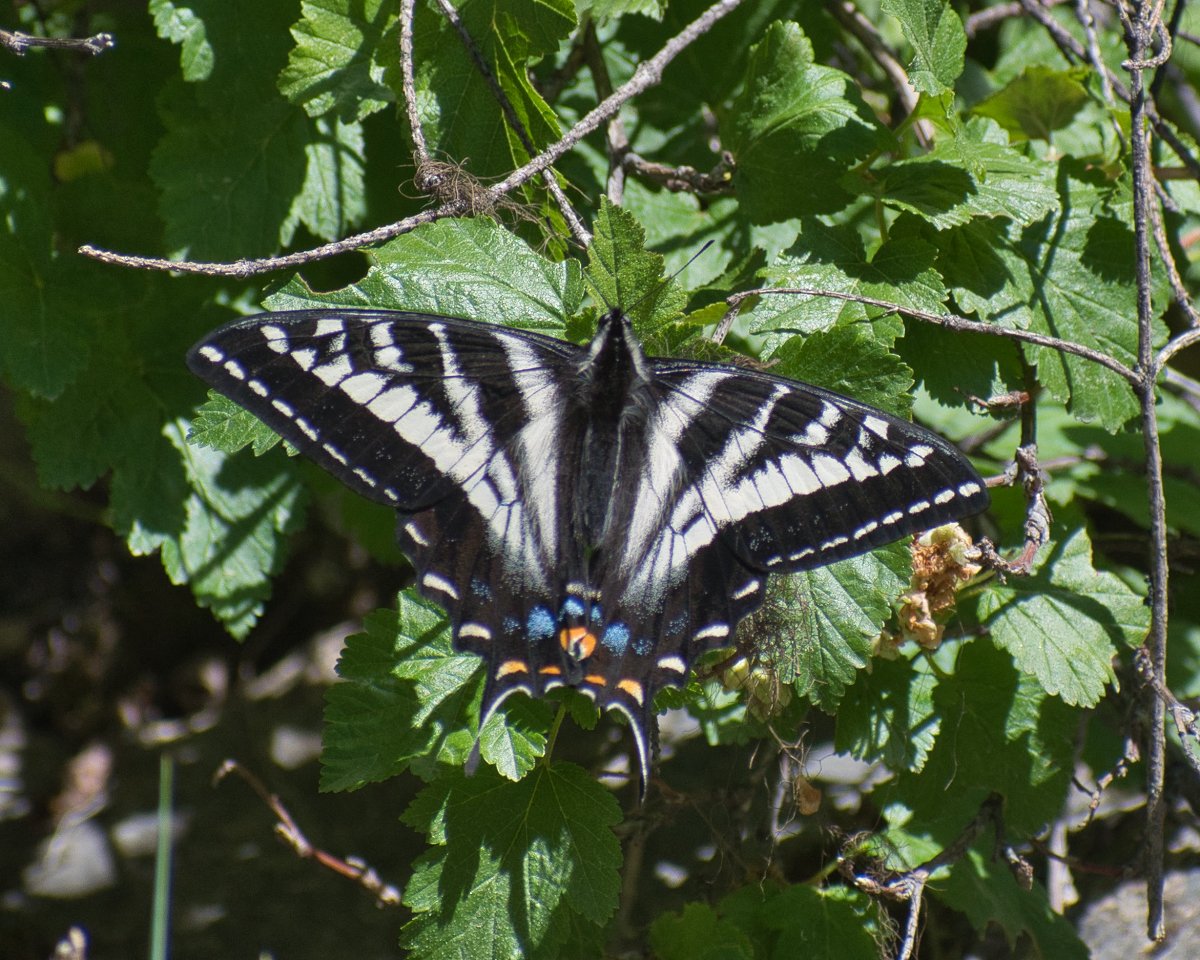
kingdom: Animalia
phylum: Arthropoda
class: Insecta
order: Lepidoptera
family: Papilionidae
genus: Pterourus
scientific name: Pterourus eurymedon
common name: Pale Swallowtail
